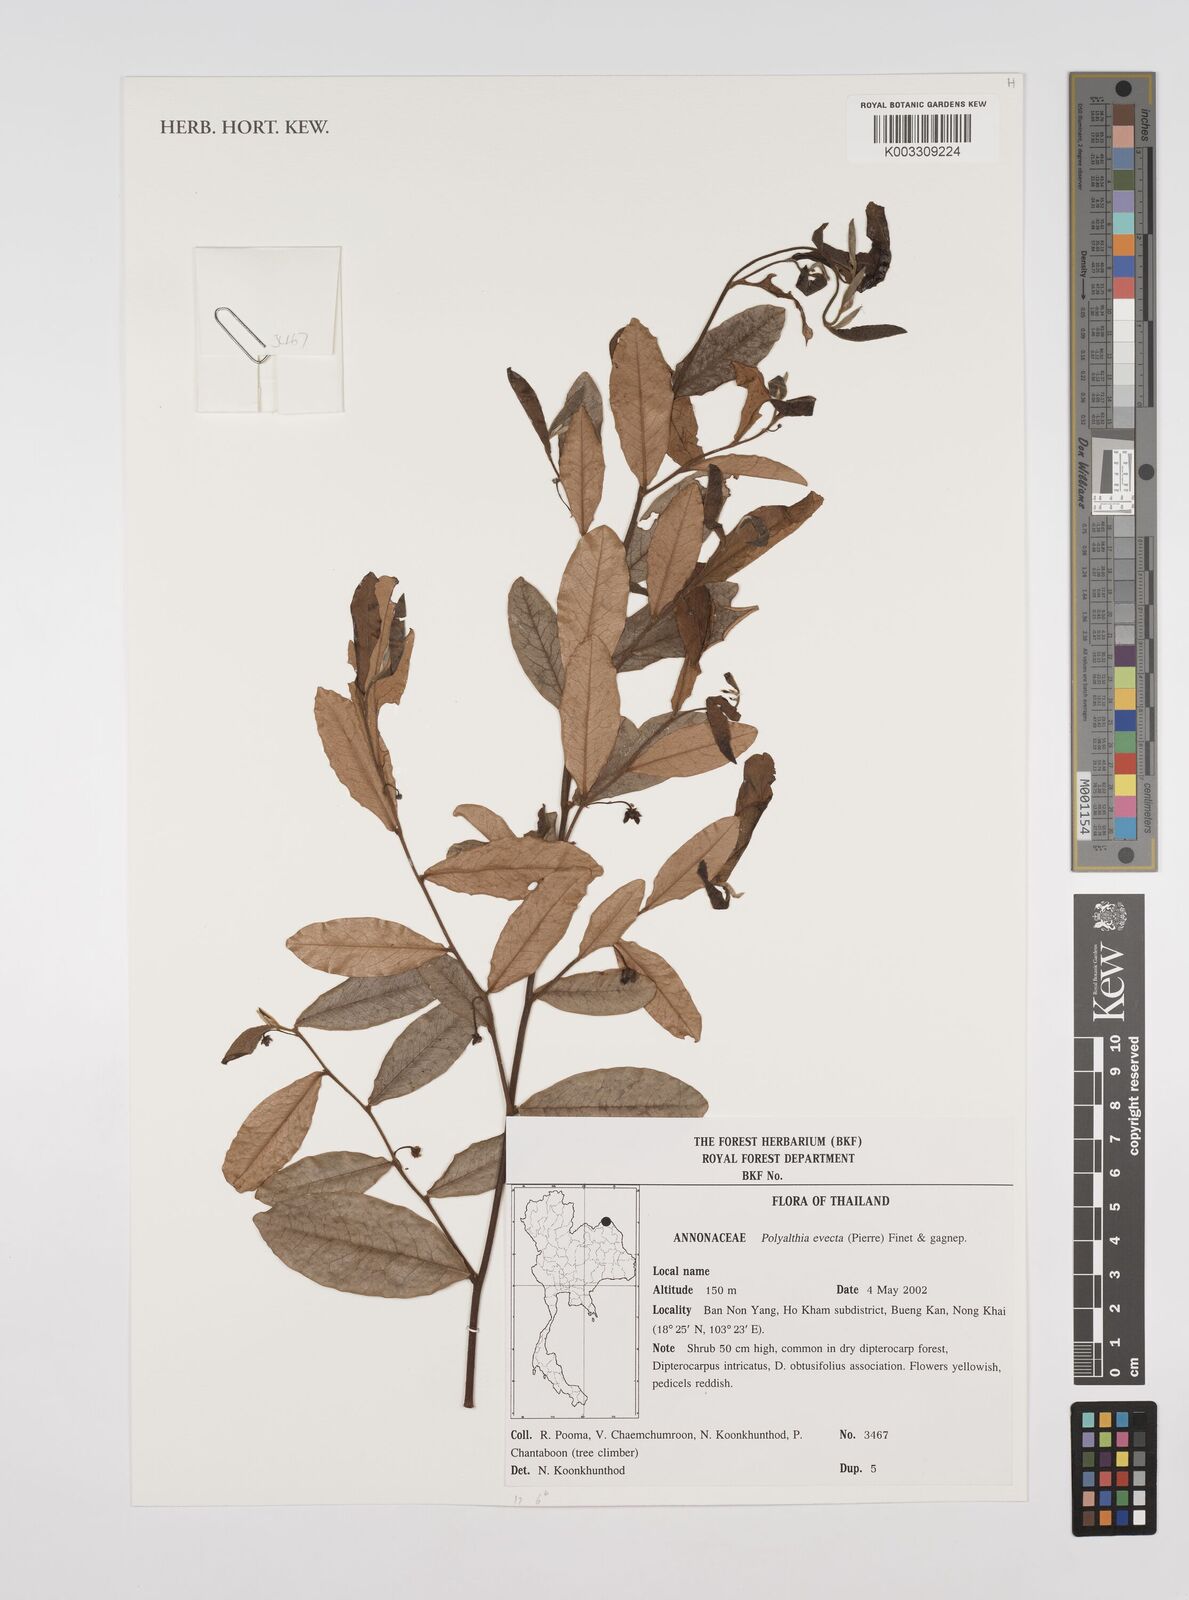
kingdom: Plantae
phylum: Tracheophyta
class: Magnoliopsida
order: Magnoliales
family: Annonaceae
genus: Polyalthia
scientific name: Polyalthia evecta
